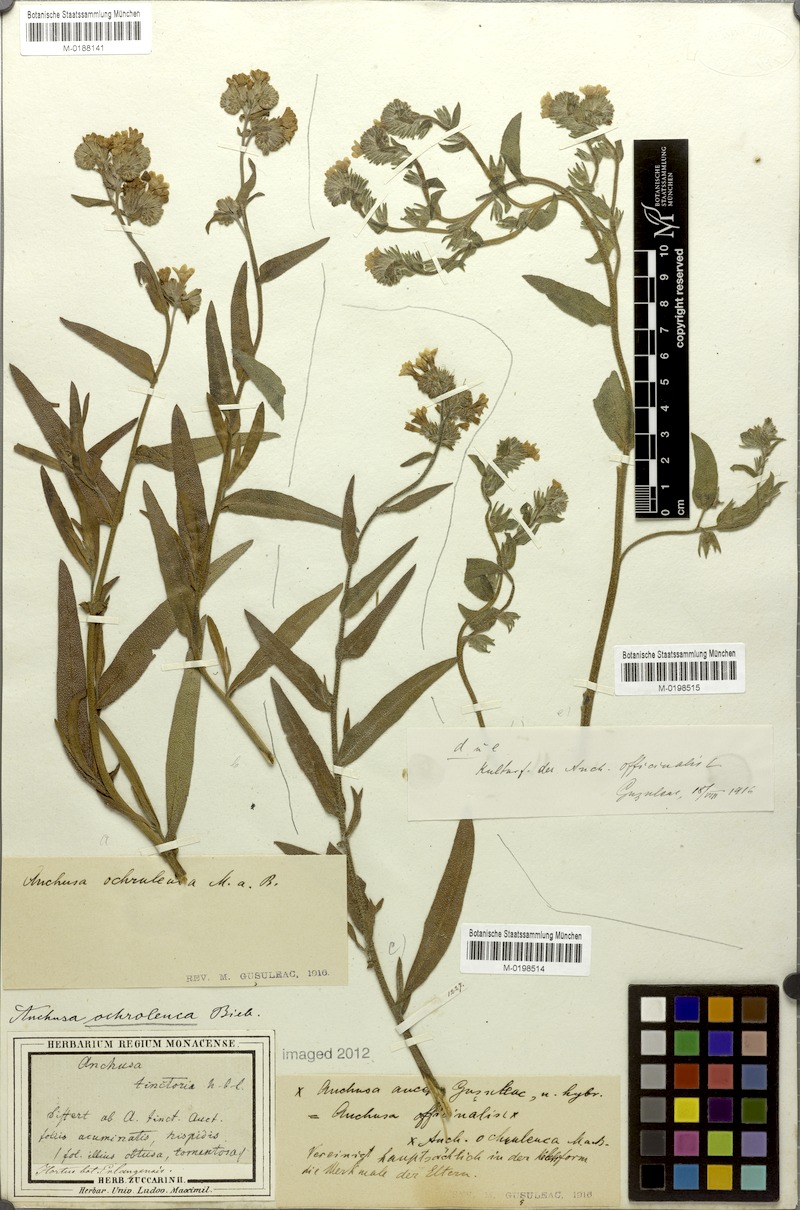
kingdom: Plantae
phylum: Tracheophyta
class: Magnoliopsida
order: Boraginales
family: Boraginaceae
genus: Anchusa
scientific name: Anchusa officinalis
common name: Alkanet
